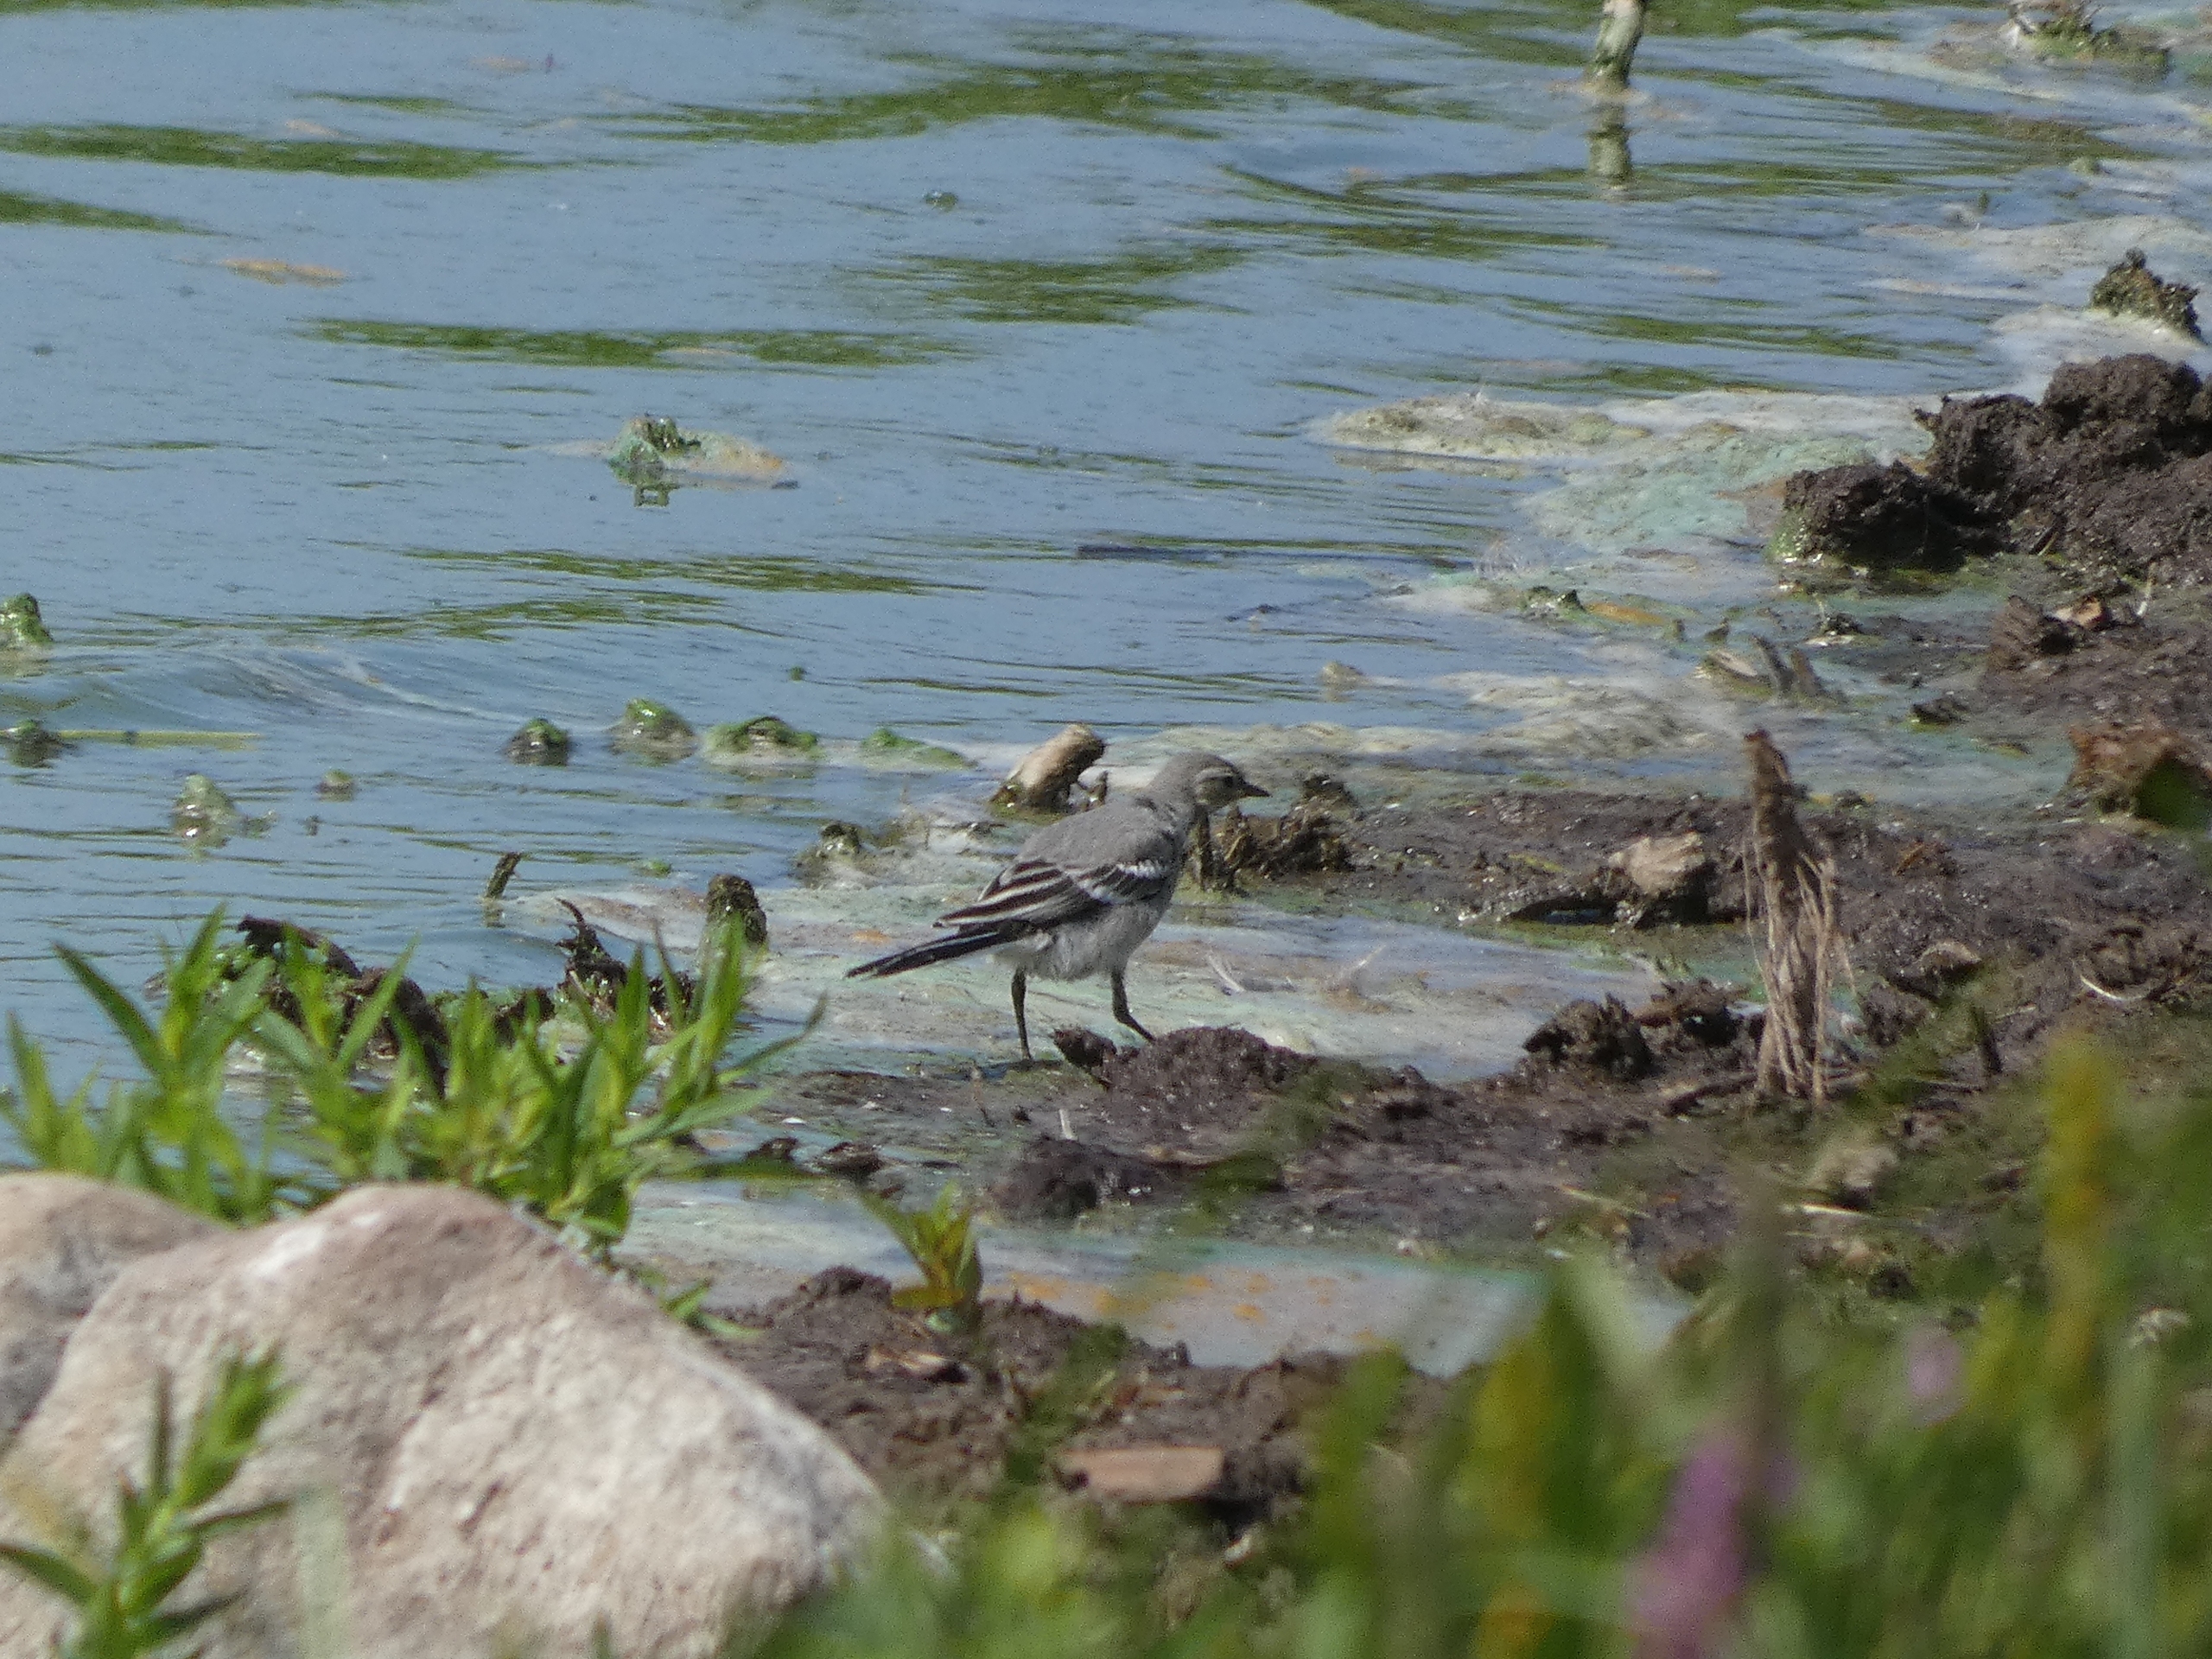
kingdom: Animalia
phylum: Chordata
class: Aves
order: Passeriformes
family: Motacillidae
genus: Motacilla
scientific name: Motacilla alba
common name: Hvid vipstjert
